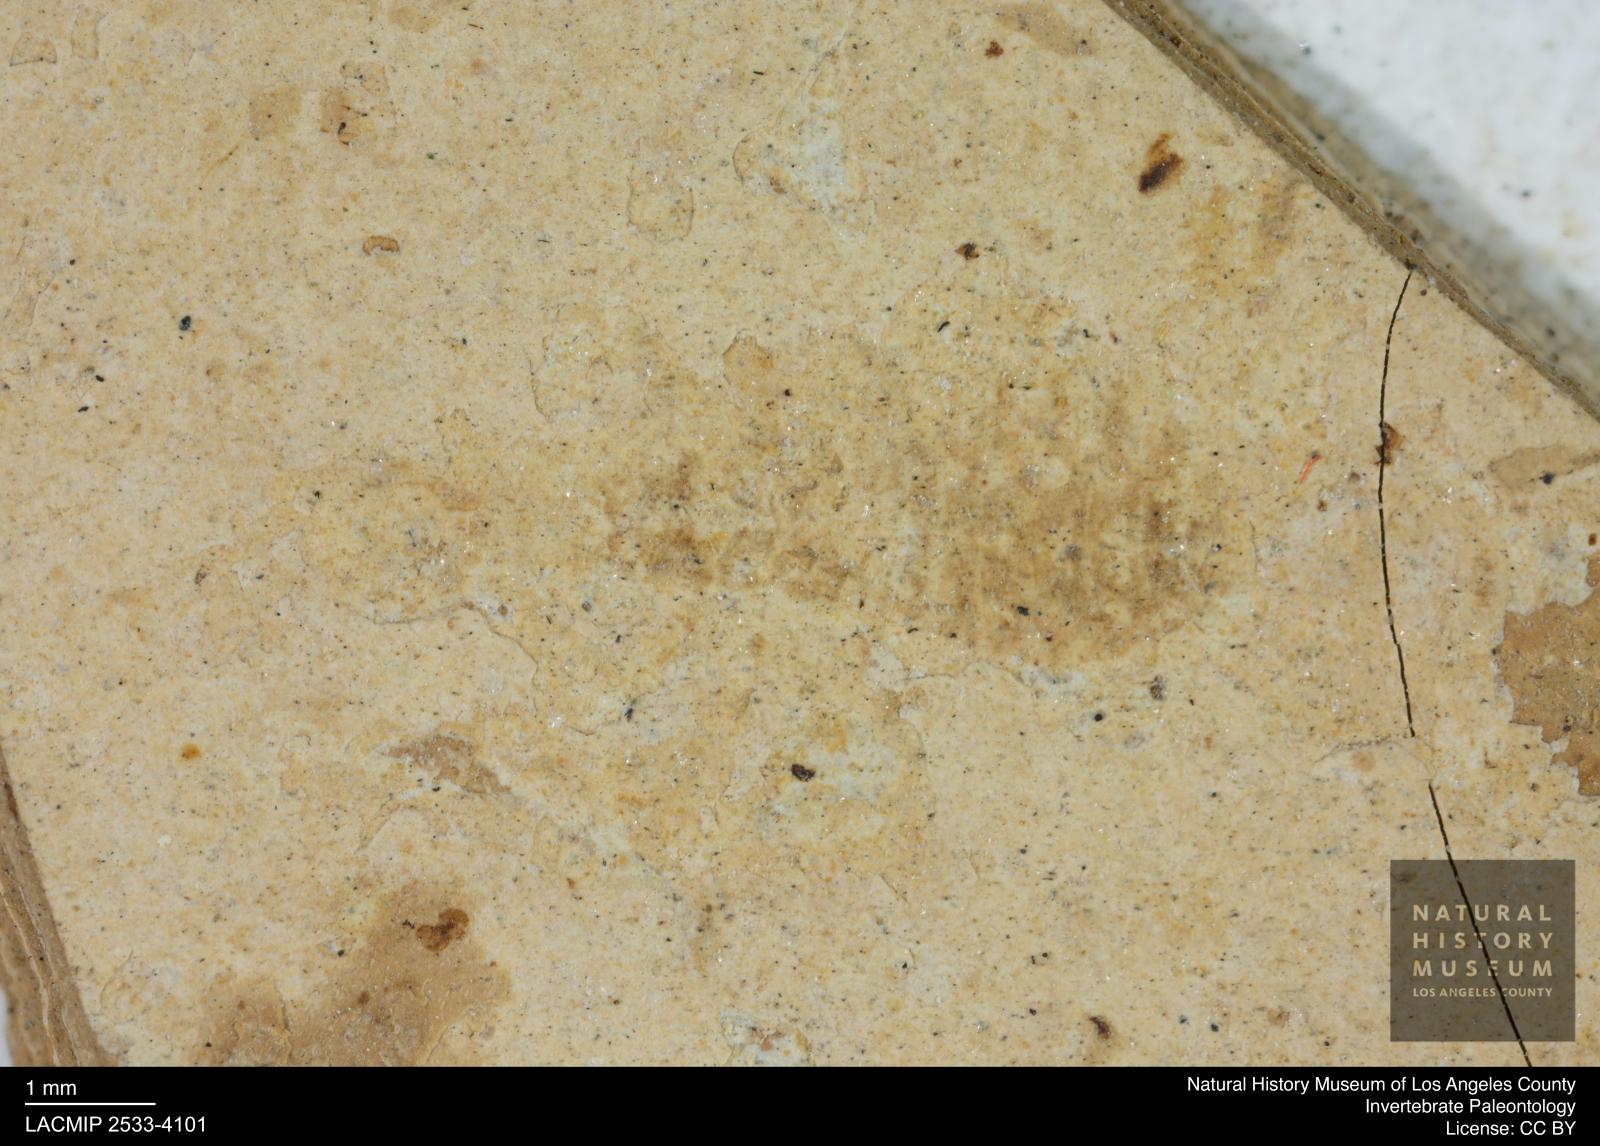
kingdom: Animalia
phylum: Arthropoda
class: Insecta
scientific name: Insecta
